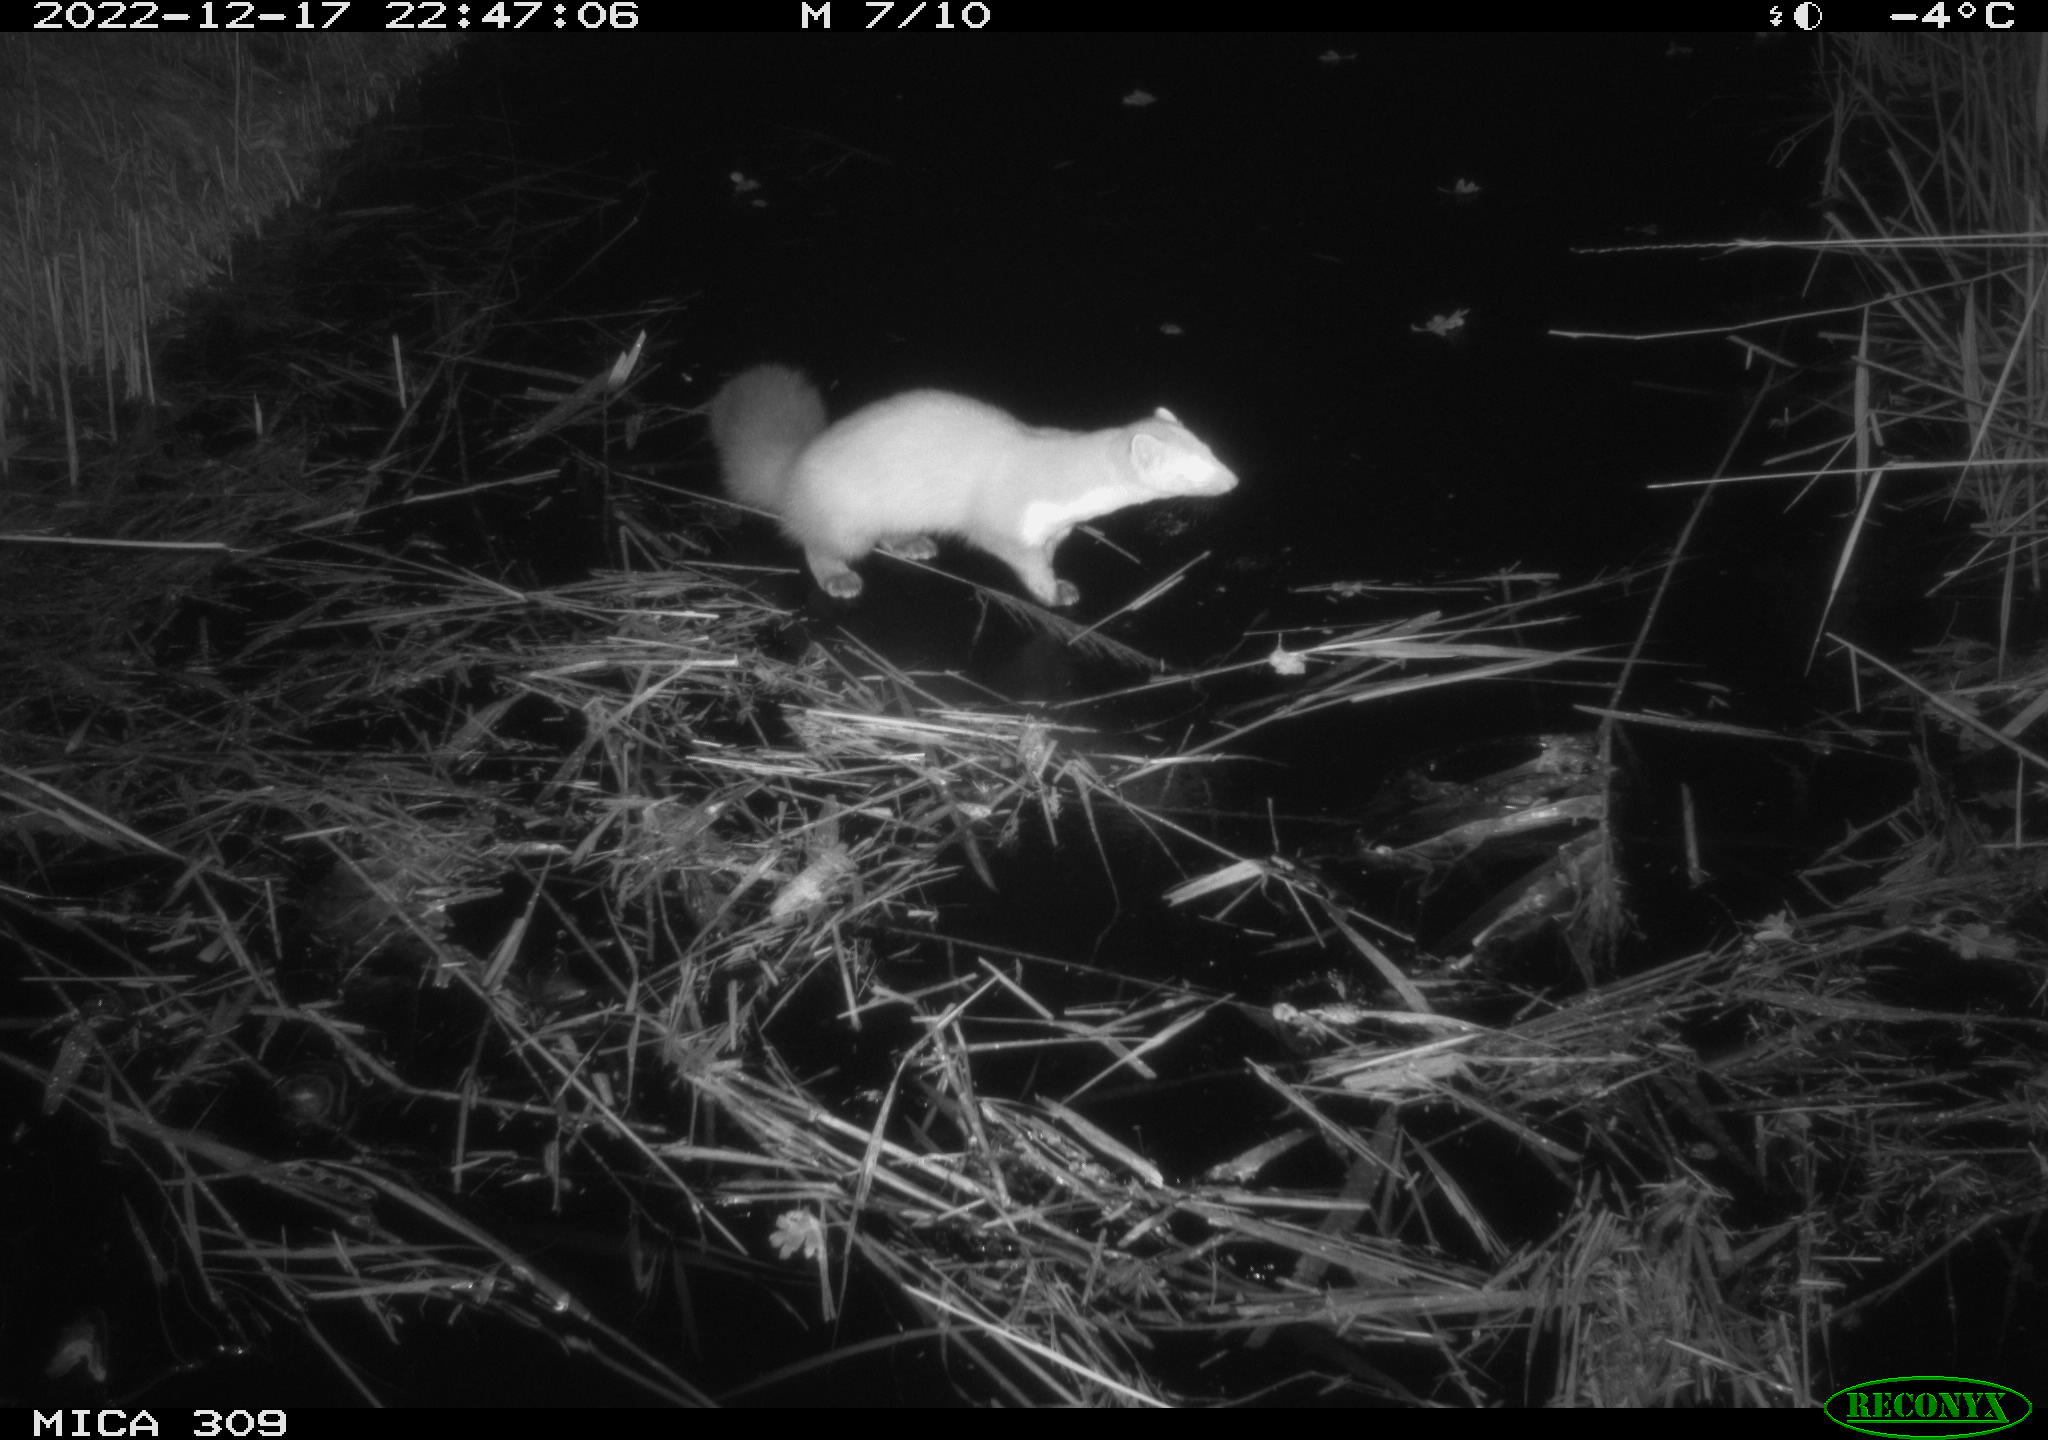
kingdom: Animalia
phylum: Chordata
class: Mammalia
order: Rodentia
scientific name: Rodentia
